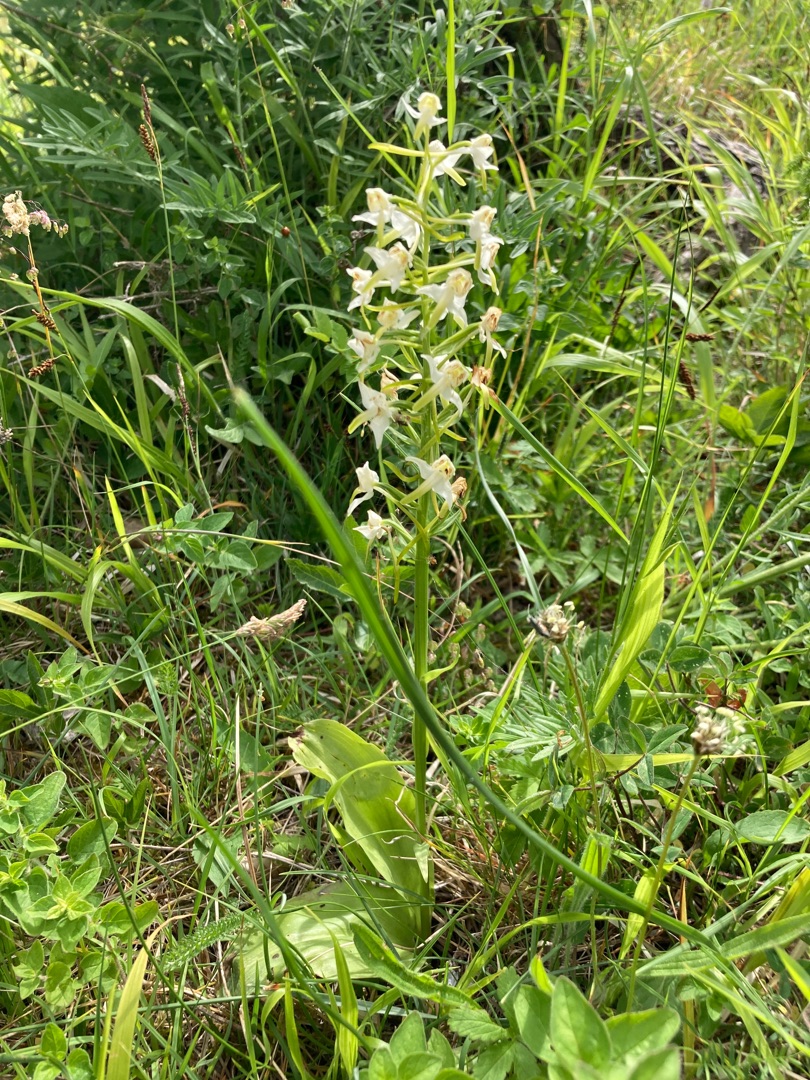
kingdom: Plantae
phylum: Tracheophyta
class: Liliopsida
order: Asparagales
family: Orchidaceae
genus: Platanthera
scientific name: Platanthera chlorantha
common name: Skov-gøgelilje
